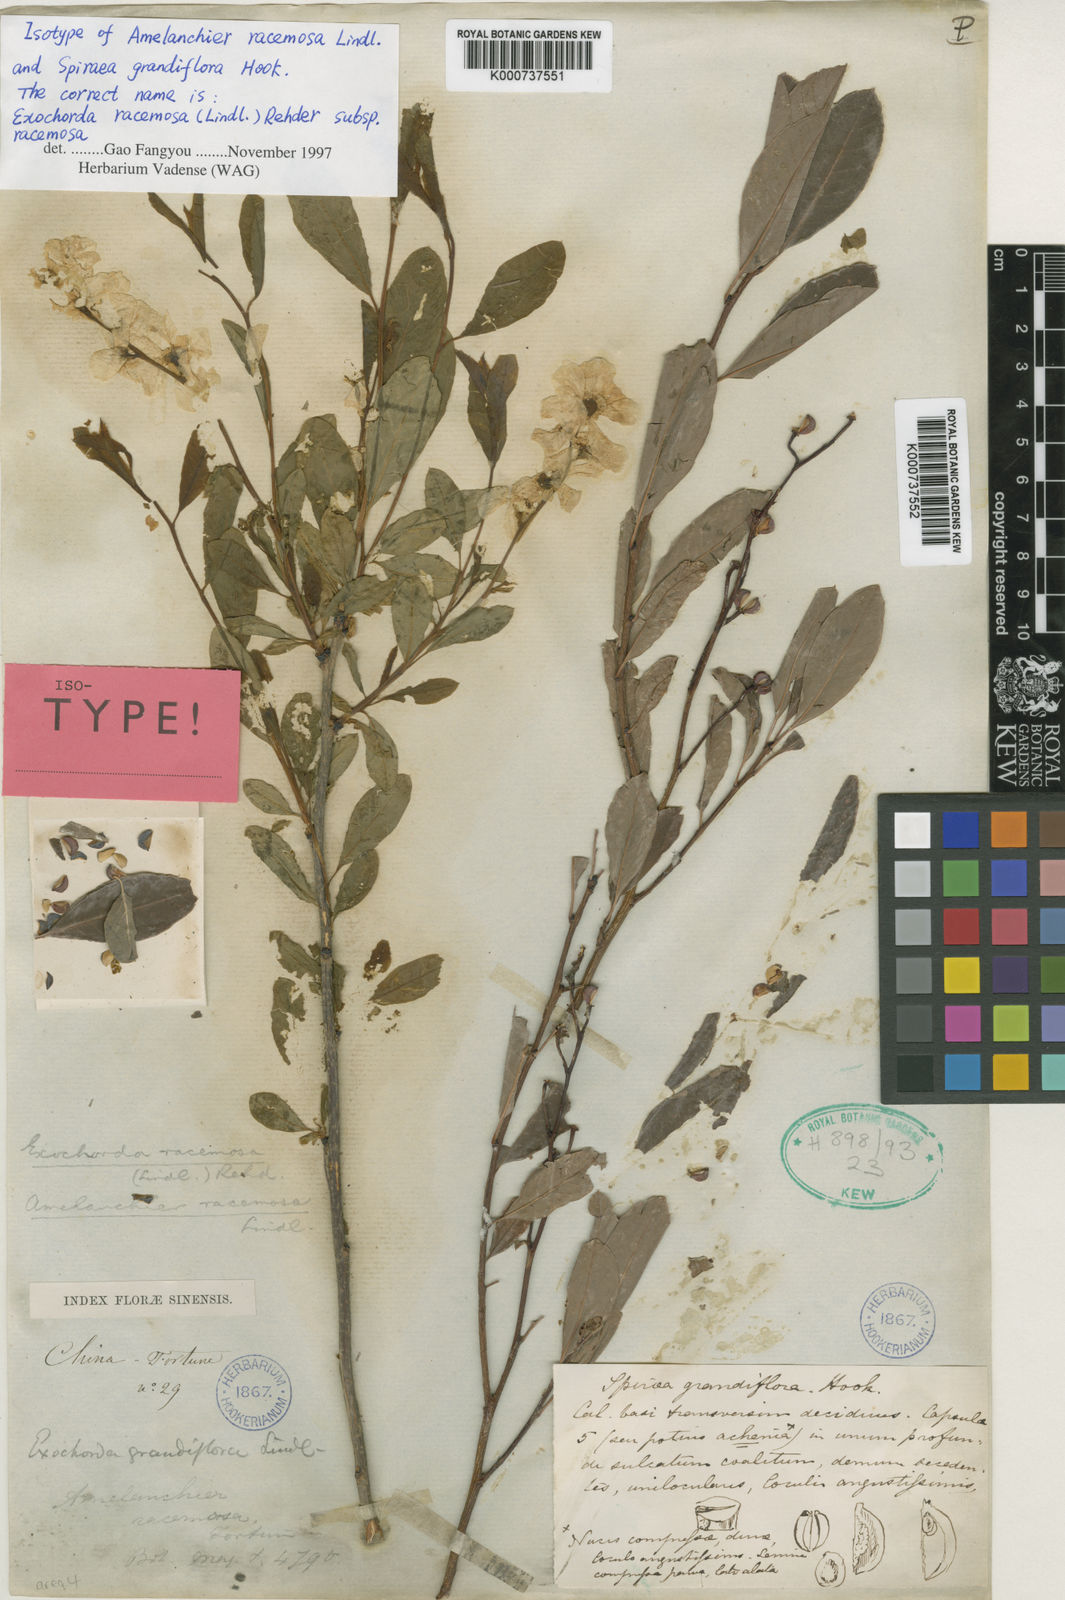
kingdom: Plantae
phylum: Tracheophyta
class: Magnoliopsida
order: Rosales
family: Rosaceae
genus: Exochorda
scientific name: Exochorda racemosa
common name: Common pearlbrush
